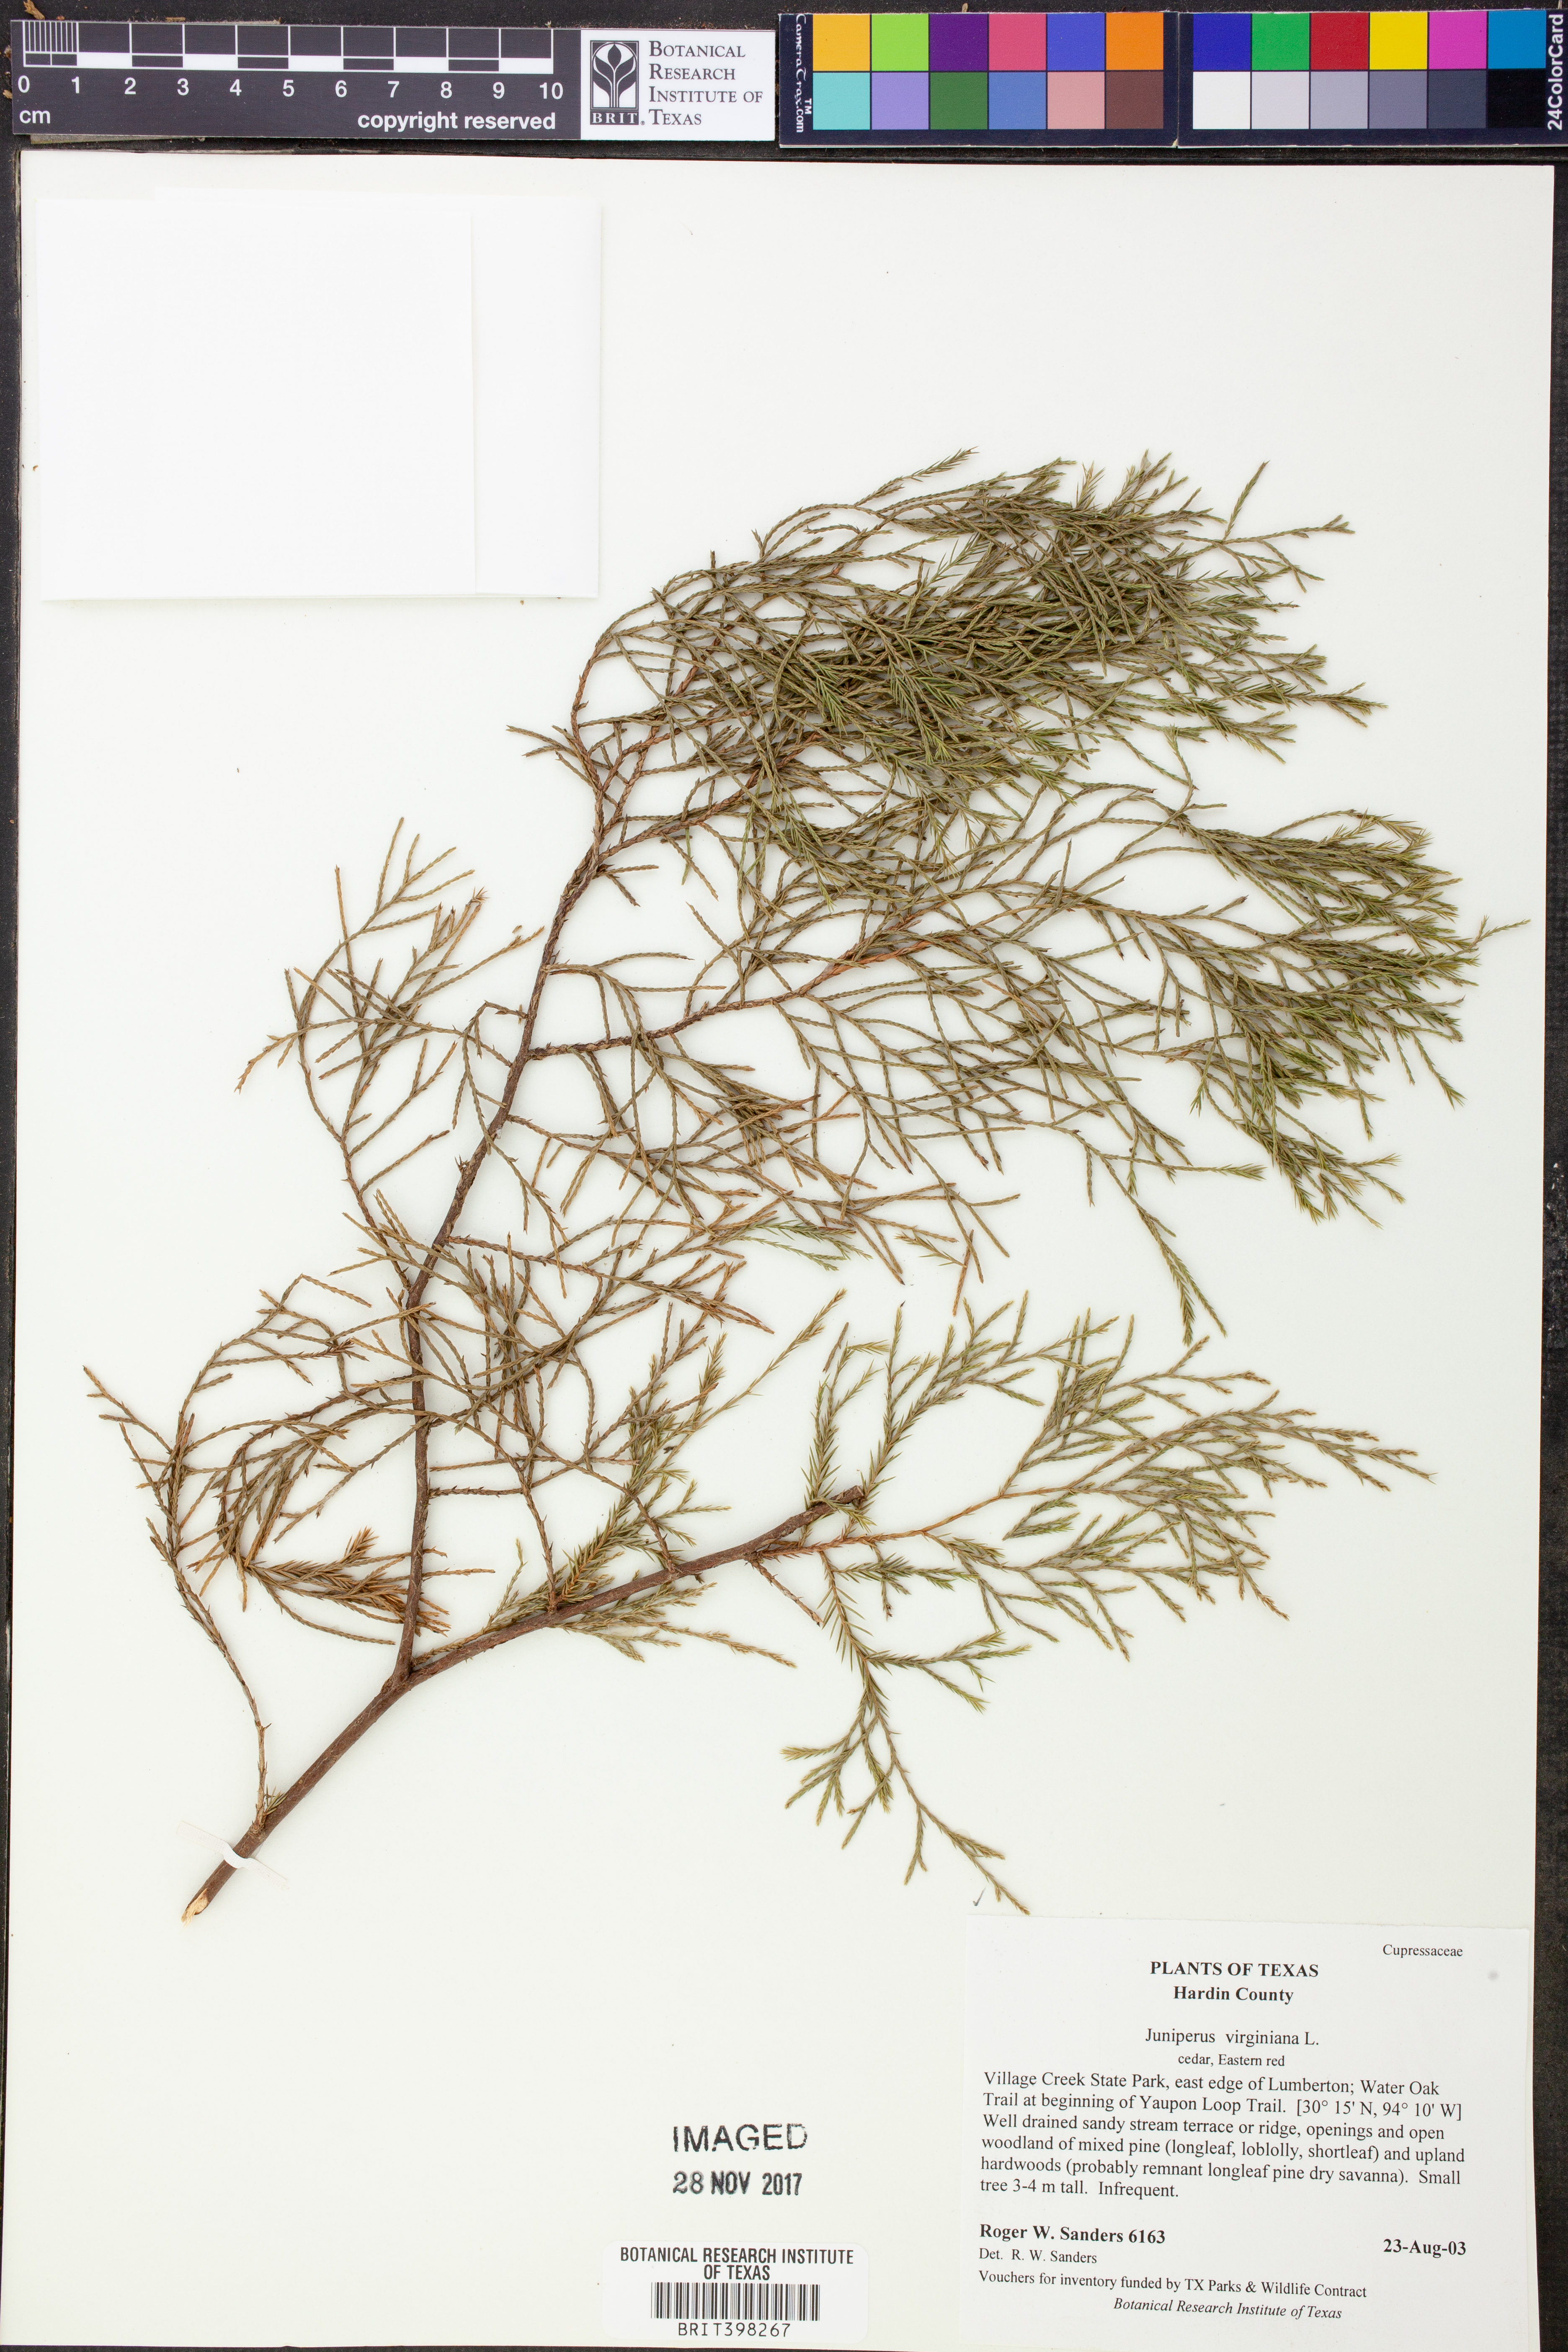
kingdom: Plantae
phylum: Tracheophyta
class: Pinopsida
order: Pinales
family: Cupressaceae
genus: Juniperus
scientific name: Juniperus virginiana
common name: Red juniper
